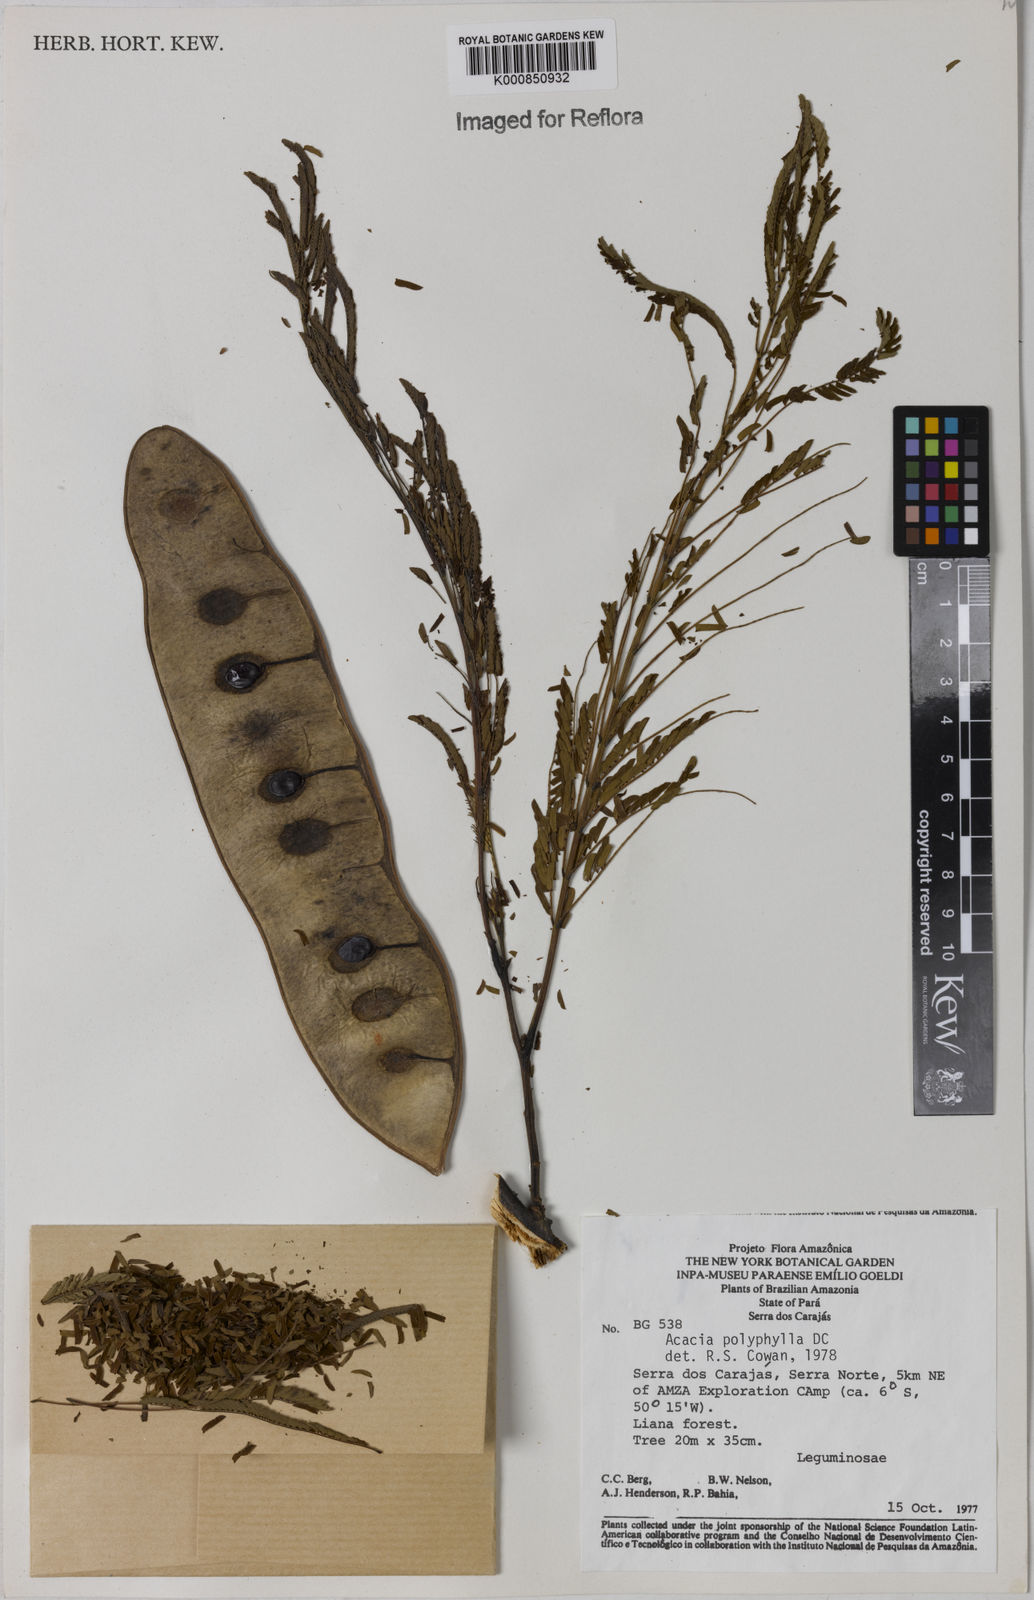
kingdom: Plantae
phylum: Tracheophyta
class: Magnoliopsida
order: Fabales
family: Fabaceae
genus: Senegalia
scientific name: Senegalia polyphylla
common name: White-tamarind
